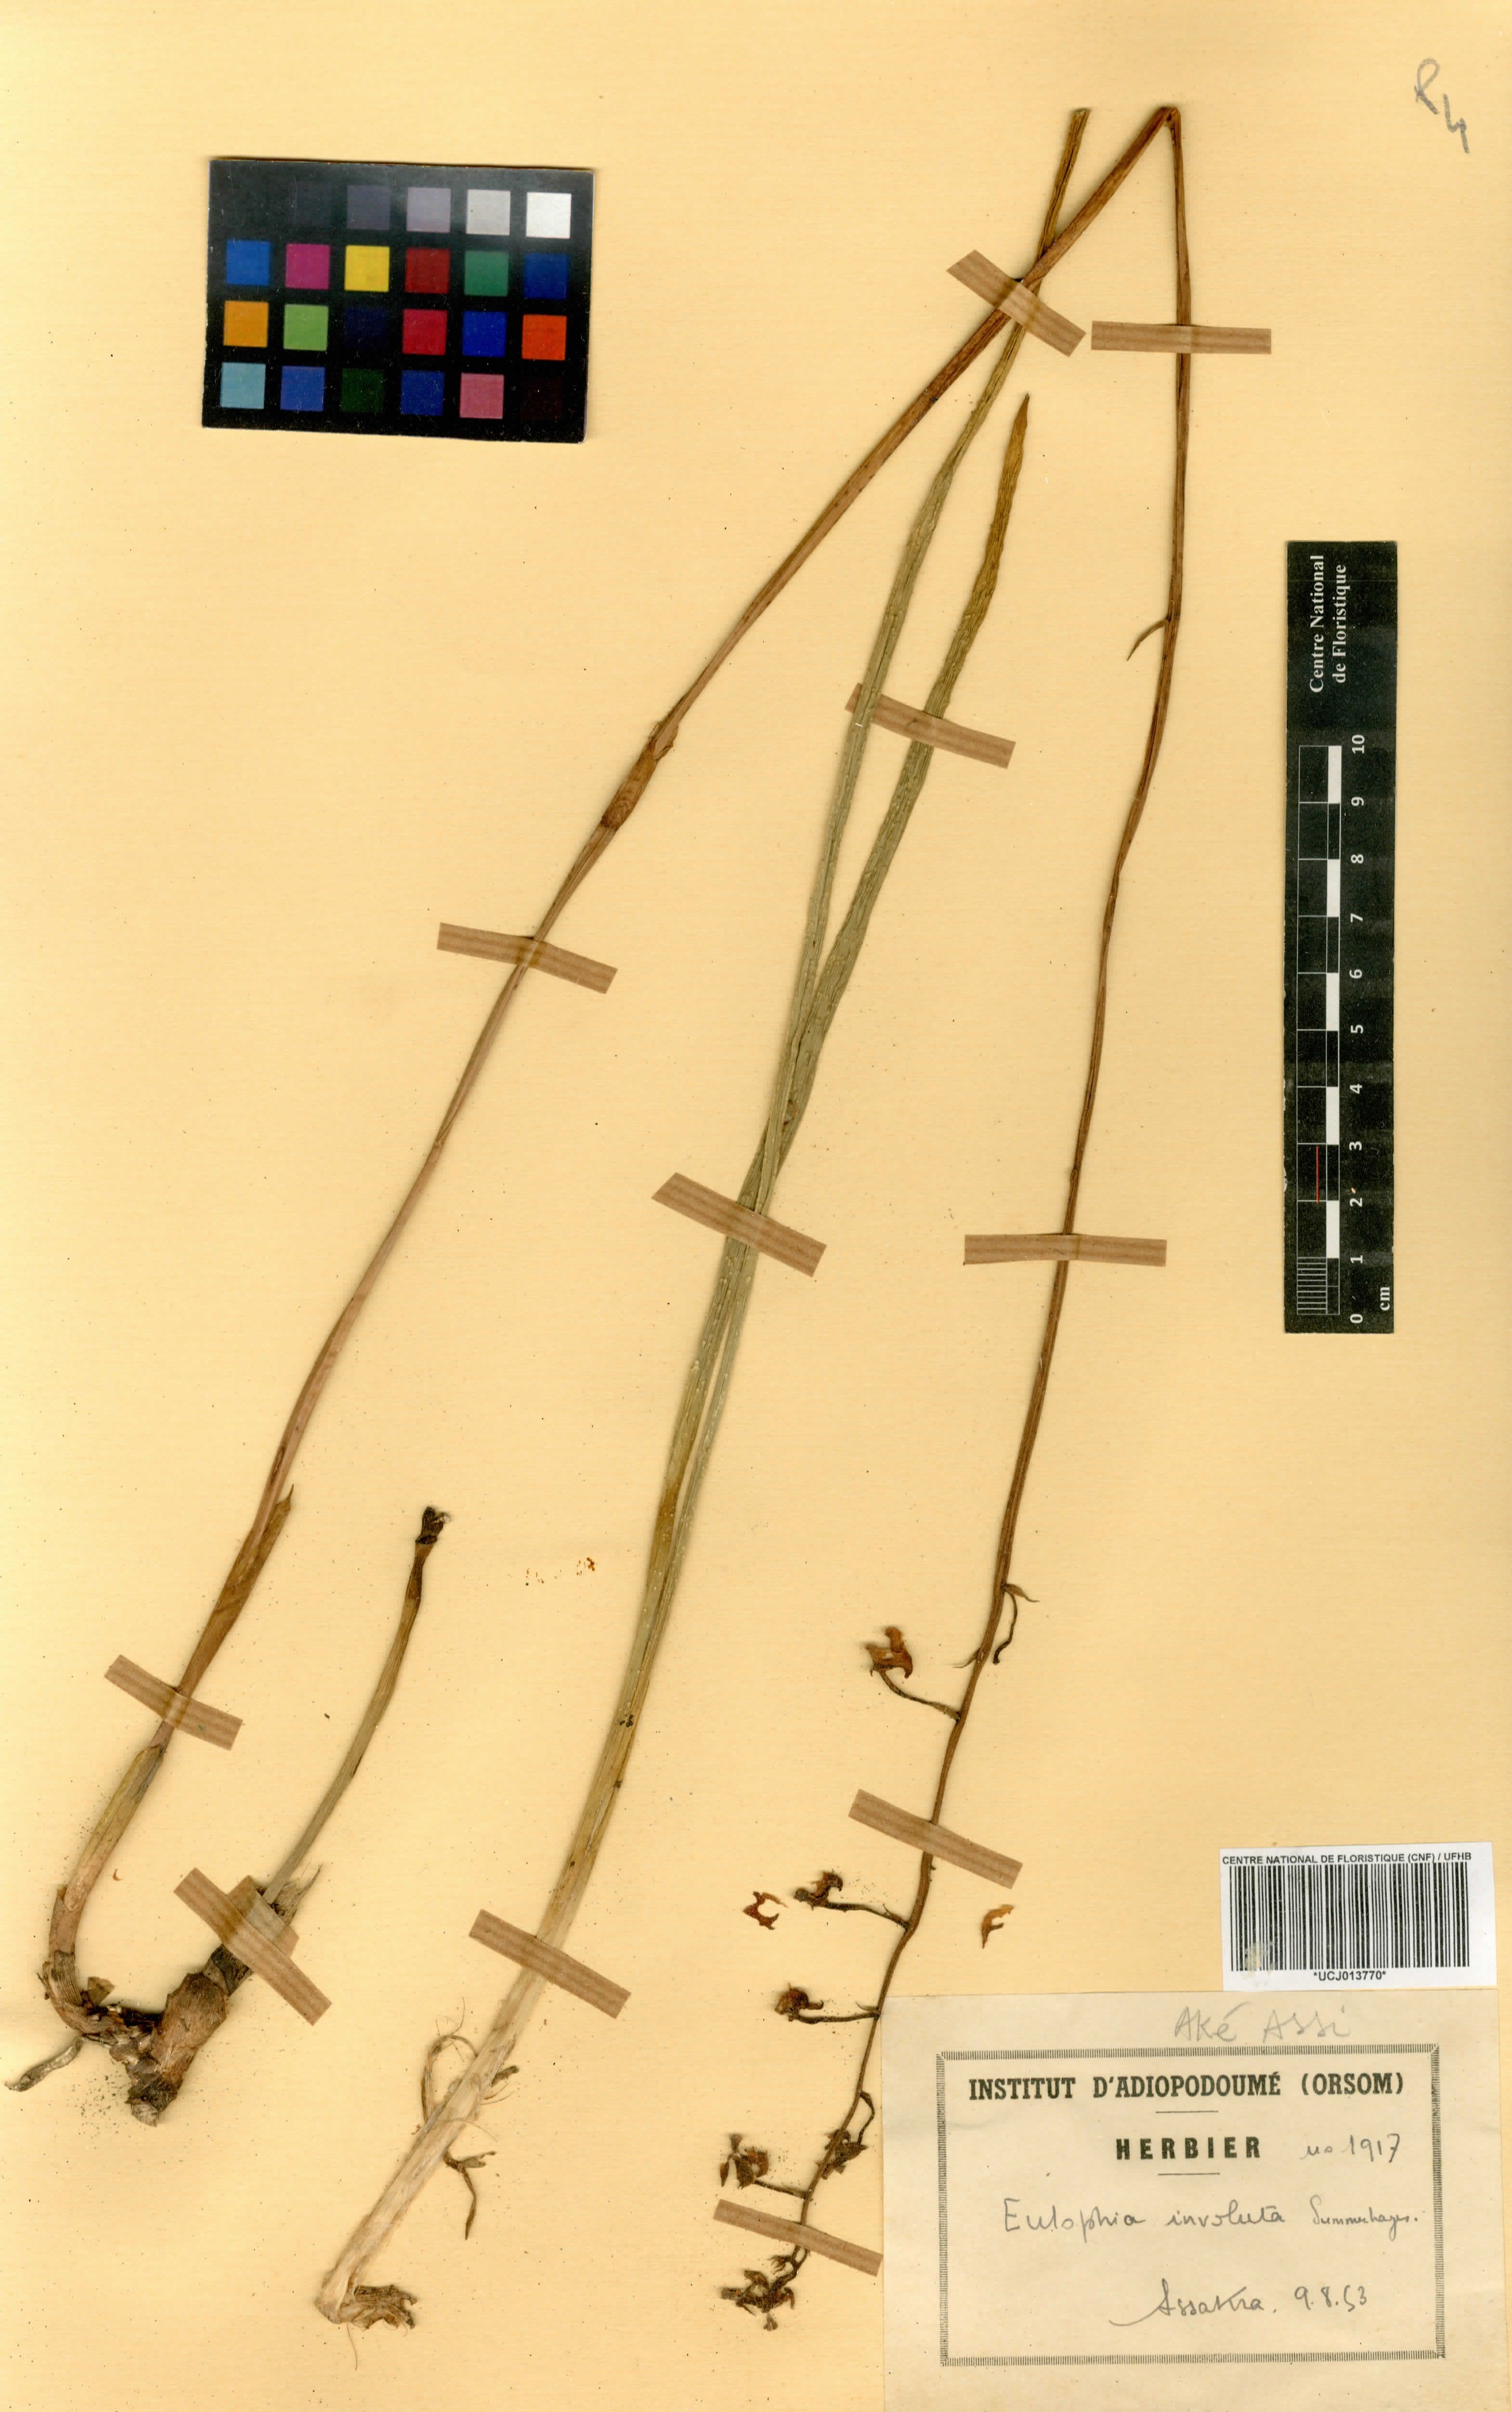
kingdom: Plantae
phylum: Tracheophyta
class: Liliopsida
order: Asparagales
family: Orchidaceae
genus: Eulophia
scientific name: Eulophia schweinfurthii
